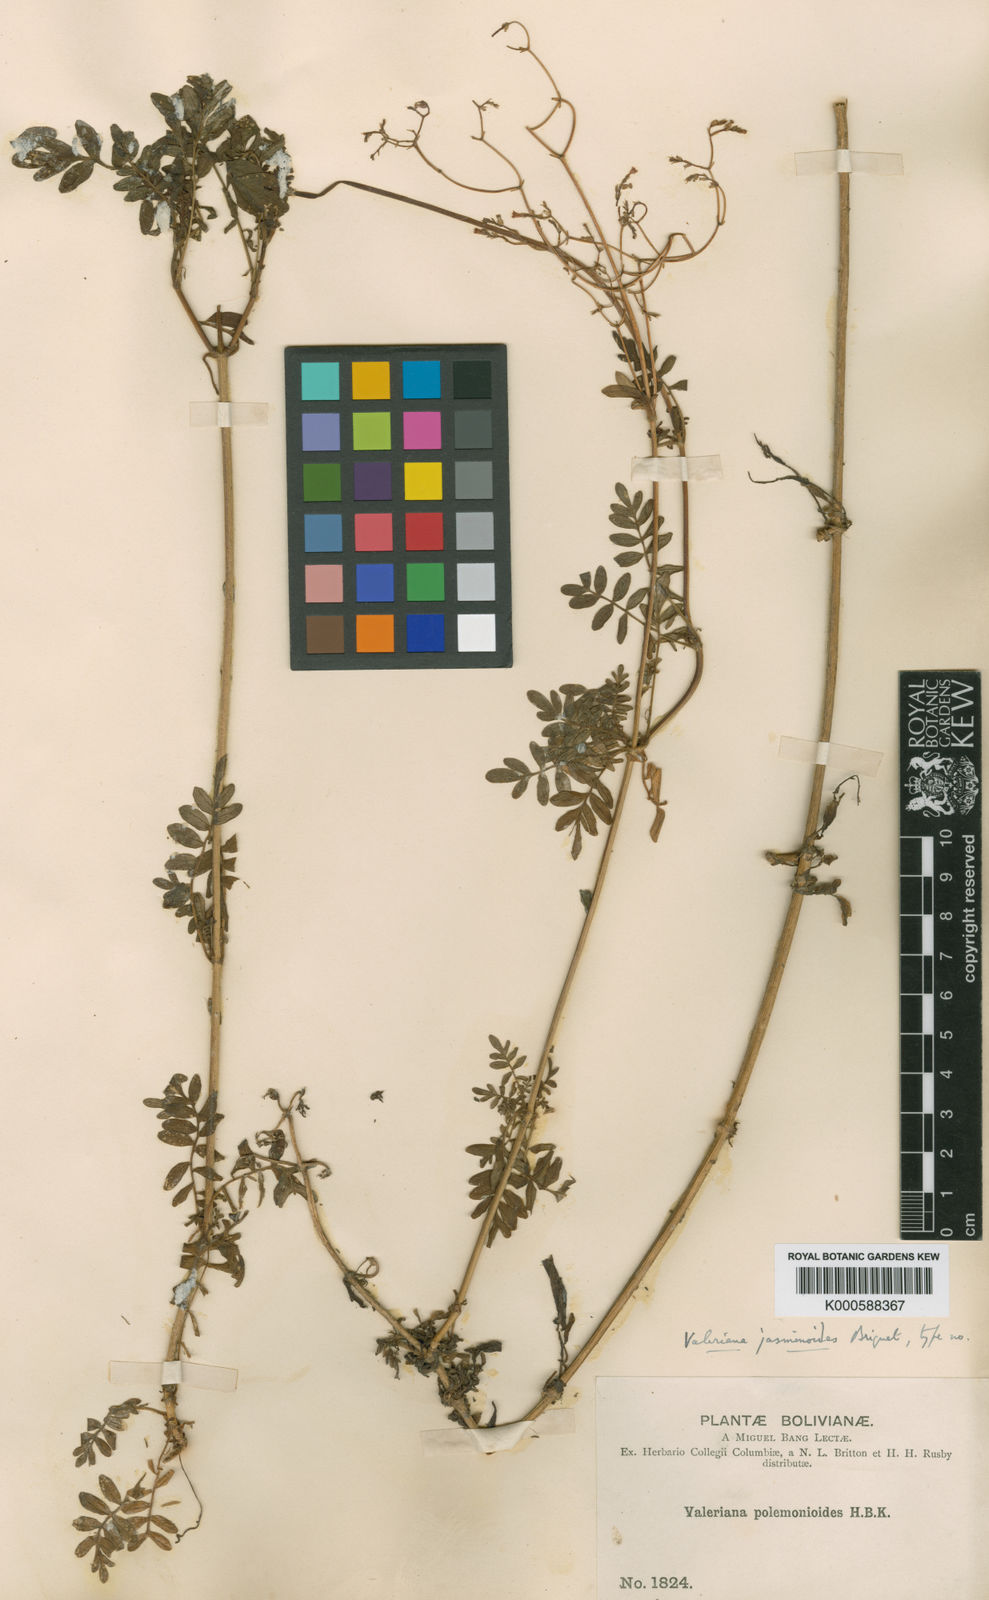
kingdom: Plantae
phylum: Tracheophyta
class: Magnoliopsida
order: Dipsacales
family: Caprifoliaceae
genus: Valeriana
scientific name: Valeriana jasminoides
